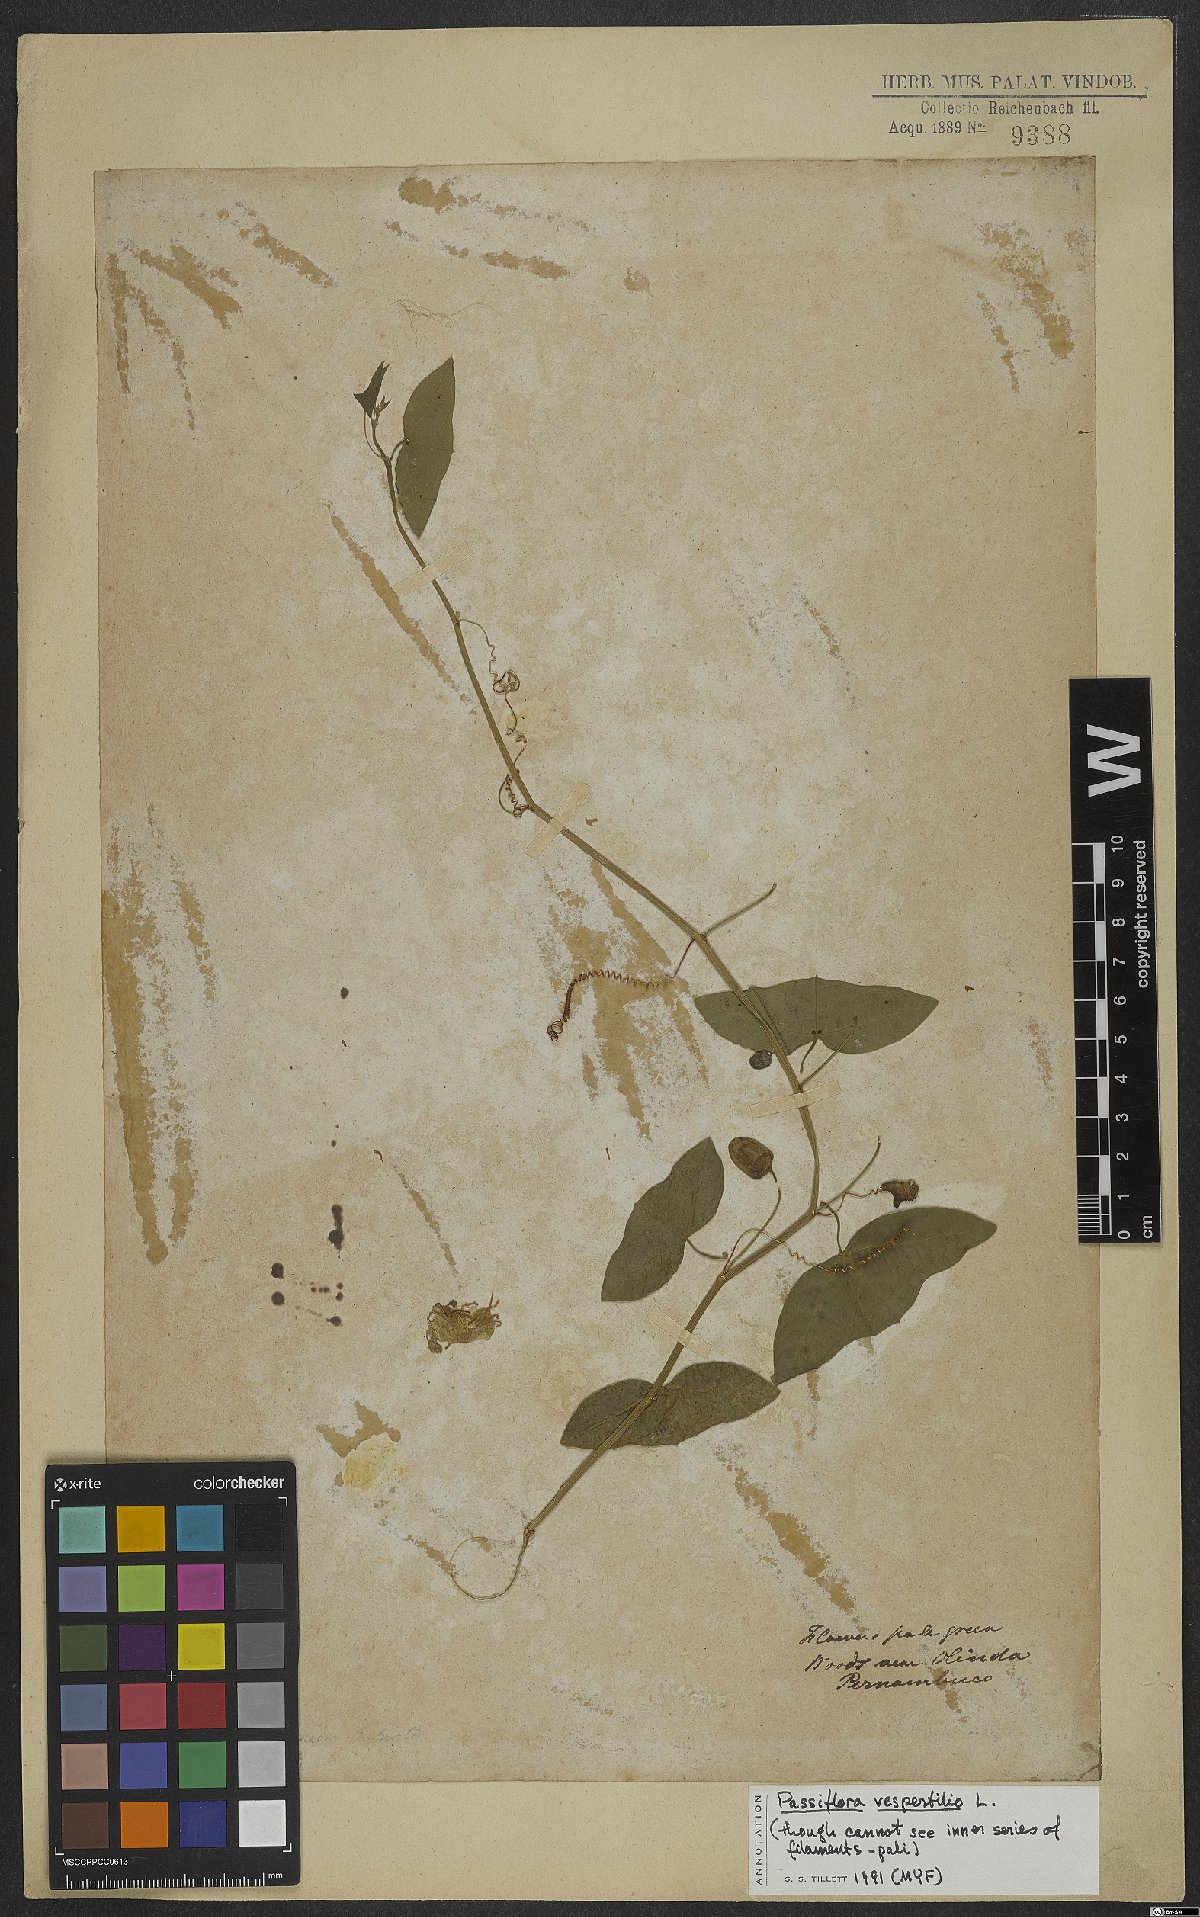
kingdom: Plantae
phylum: Tracheophyta
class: Magnoliopsida
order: Malpighiales
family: Passifloraceae
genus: Passiflora
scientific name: Passiflora vespertilio
